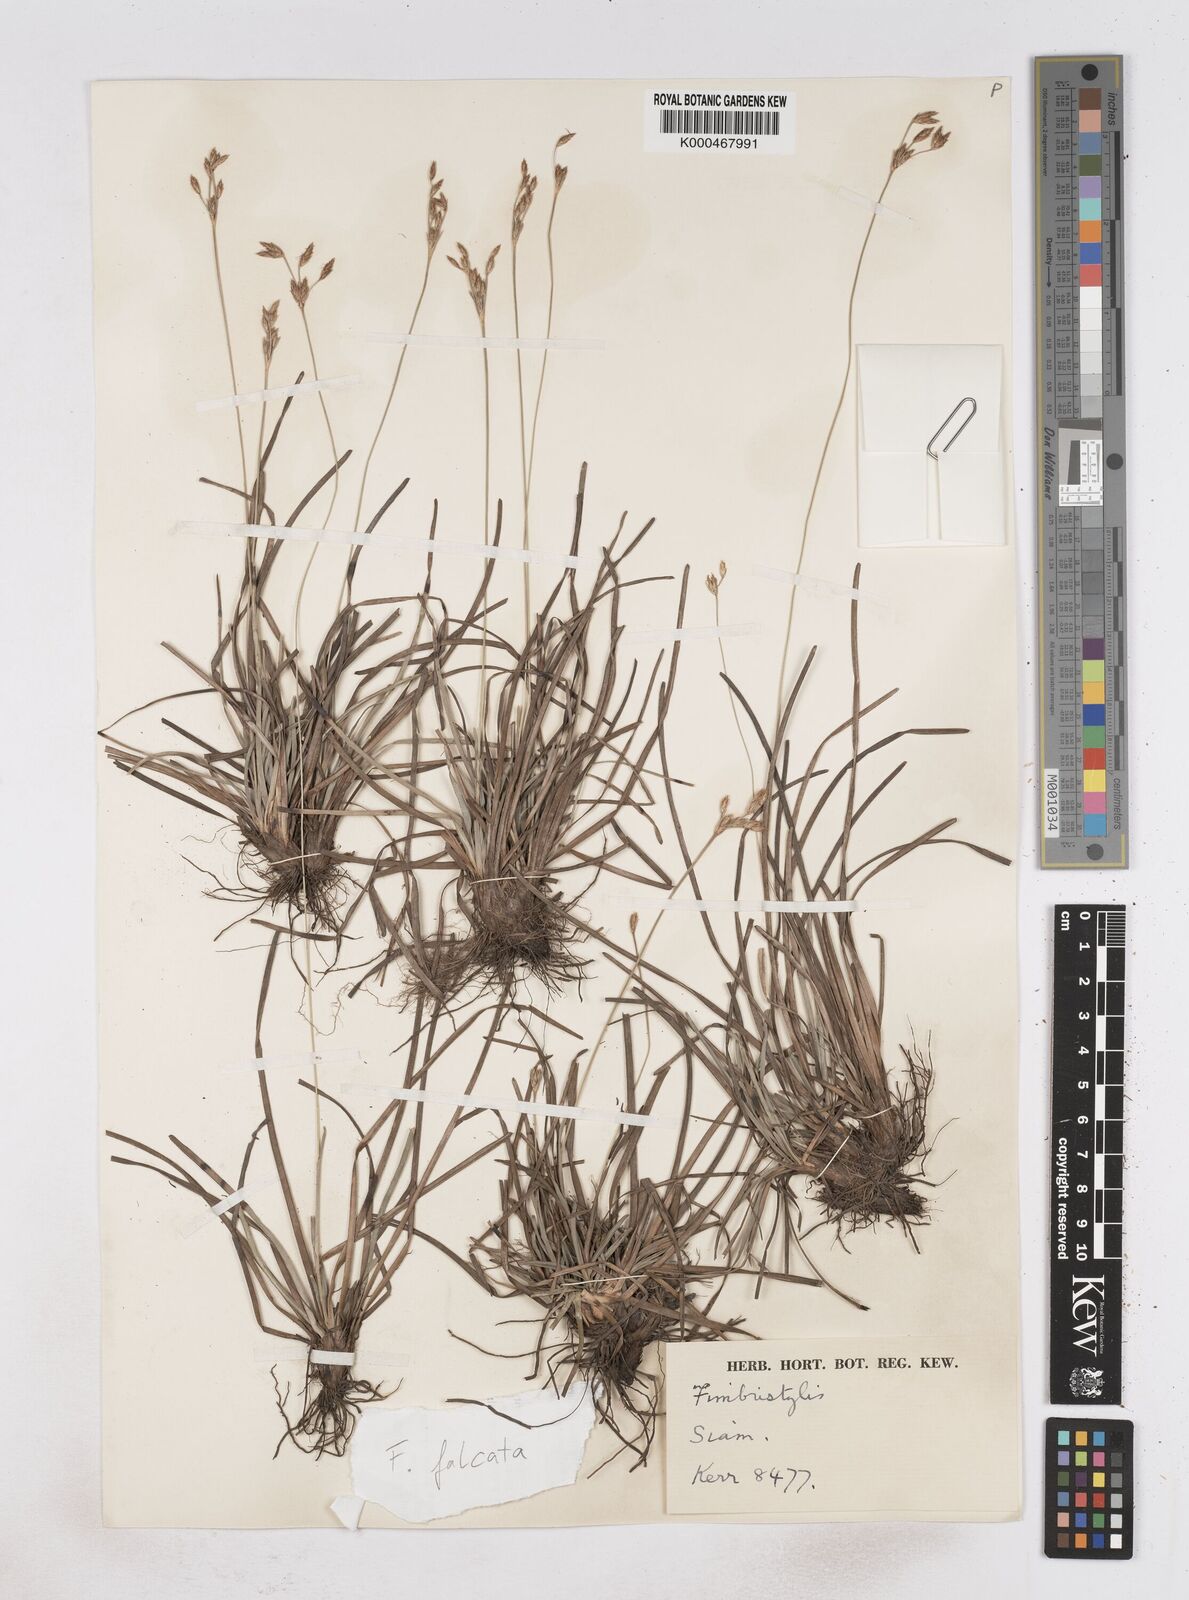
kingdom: Plantae
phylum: Tracheophyta
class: Liliopsida
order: Poales
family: Cyperaceae
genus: Fimbristylis
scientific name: Fimbristylis falcata
